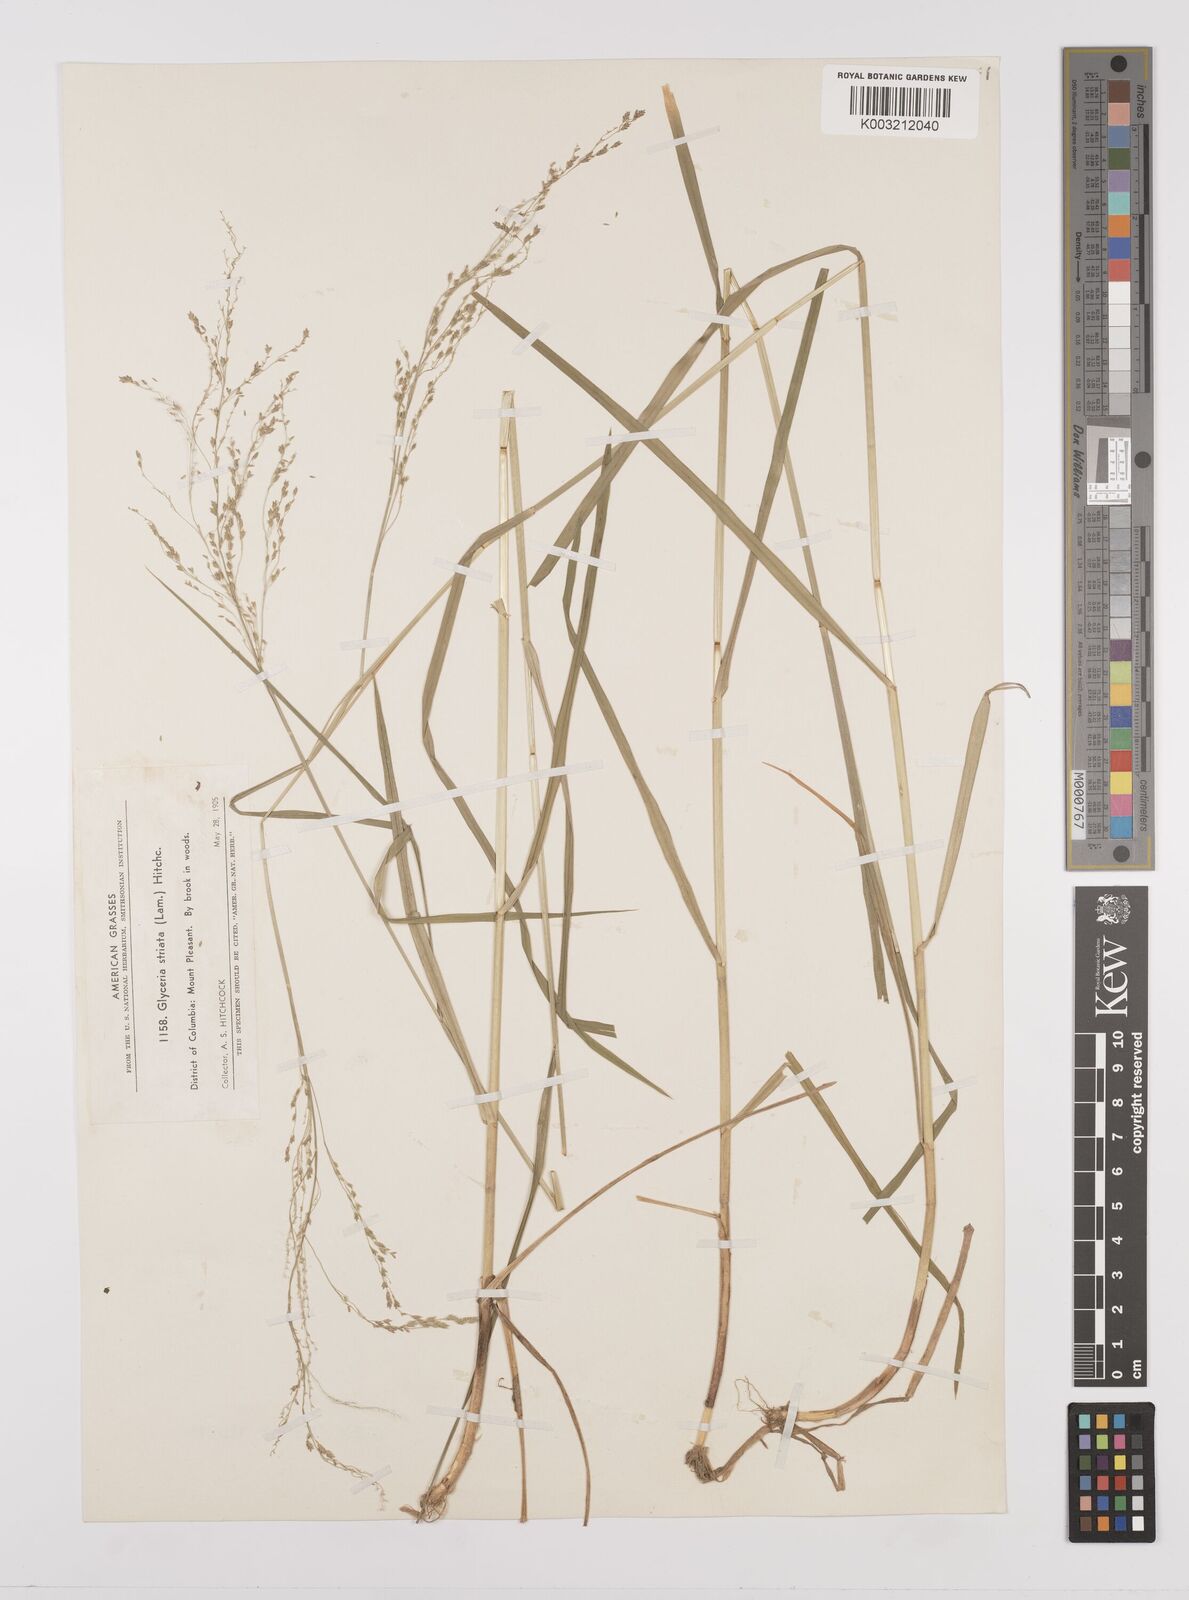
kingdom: Plantae
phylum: Tracheophyta
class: Liliopsida
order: Poales
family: Poaceae
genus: Glyceria
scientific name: Glyceria striata
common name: Fowl manna grass
